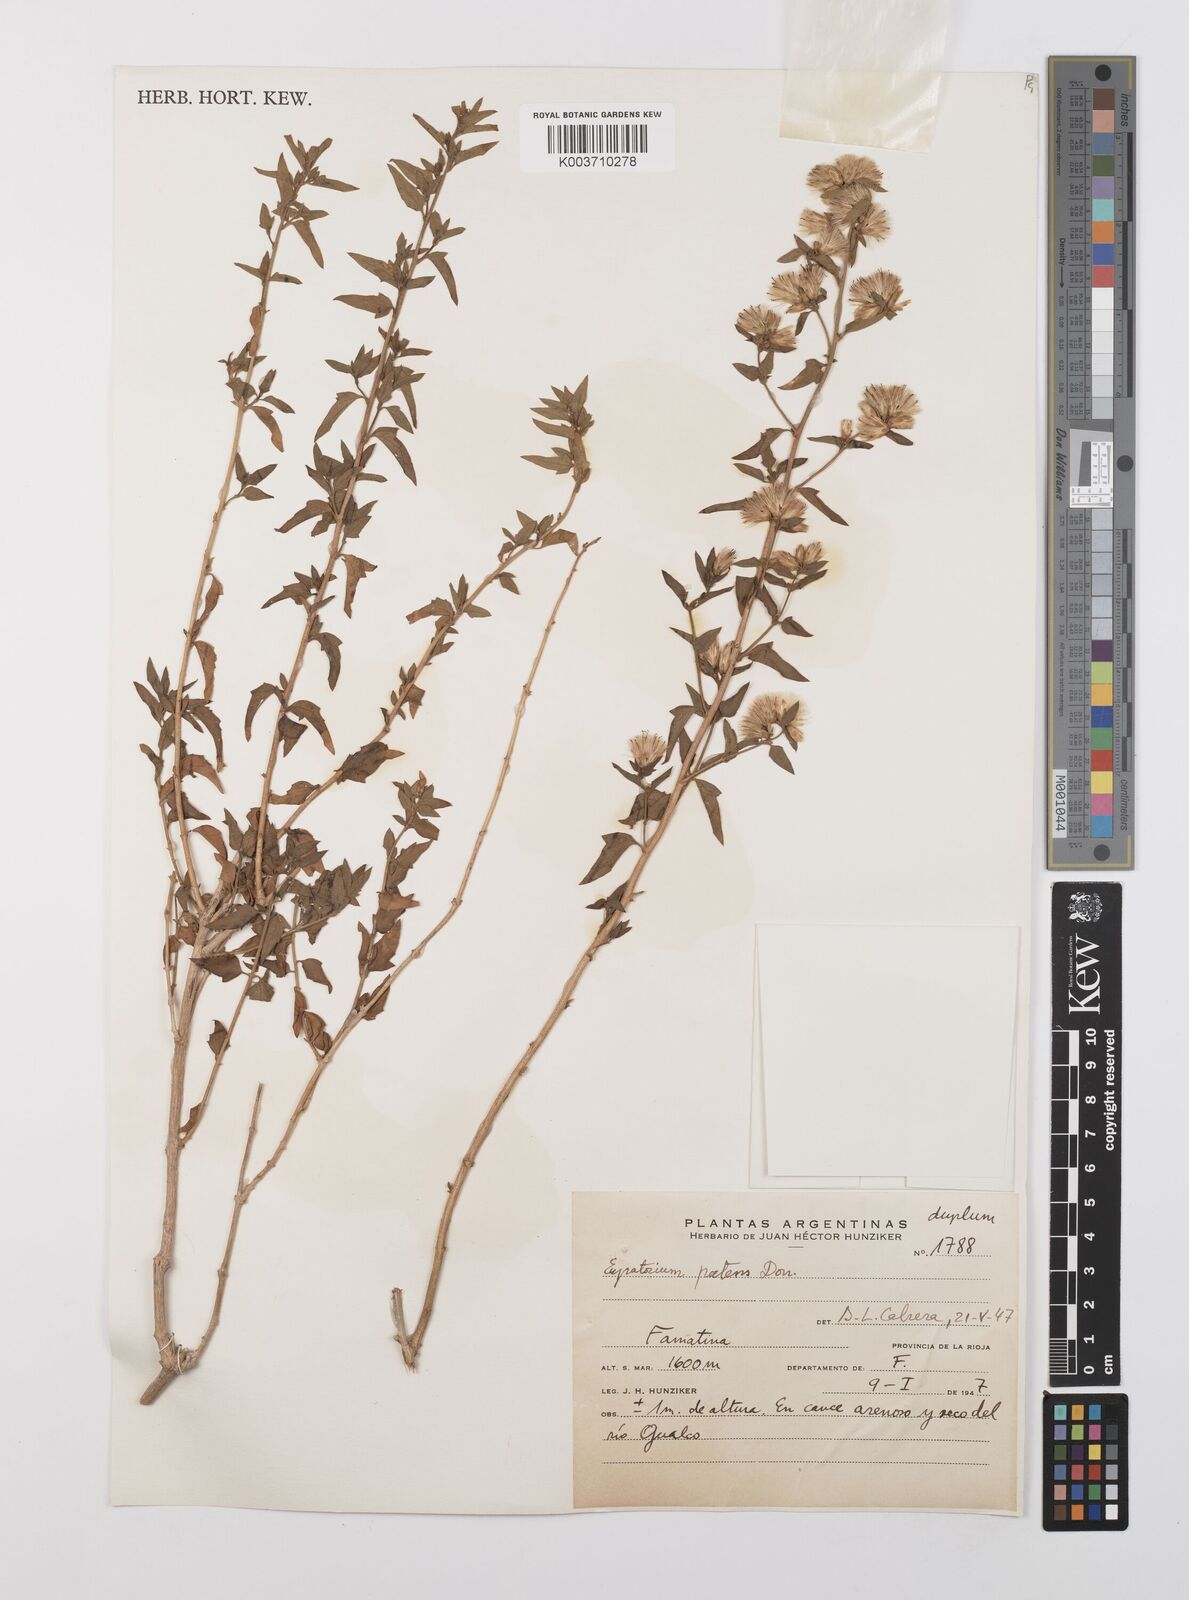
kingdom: Plantae
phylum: Tracheophyta
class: Magnoliopsida
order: Asterales
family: Asteraceae
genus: Austrobrickellia
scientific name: Austrobrickellia patens
